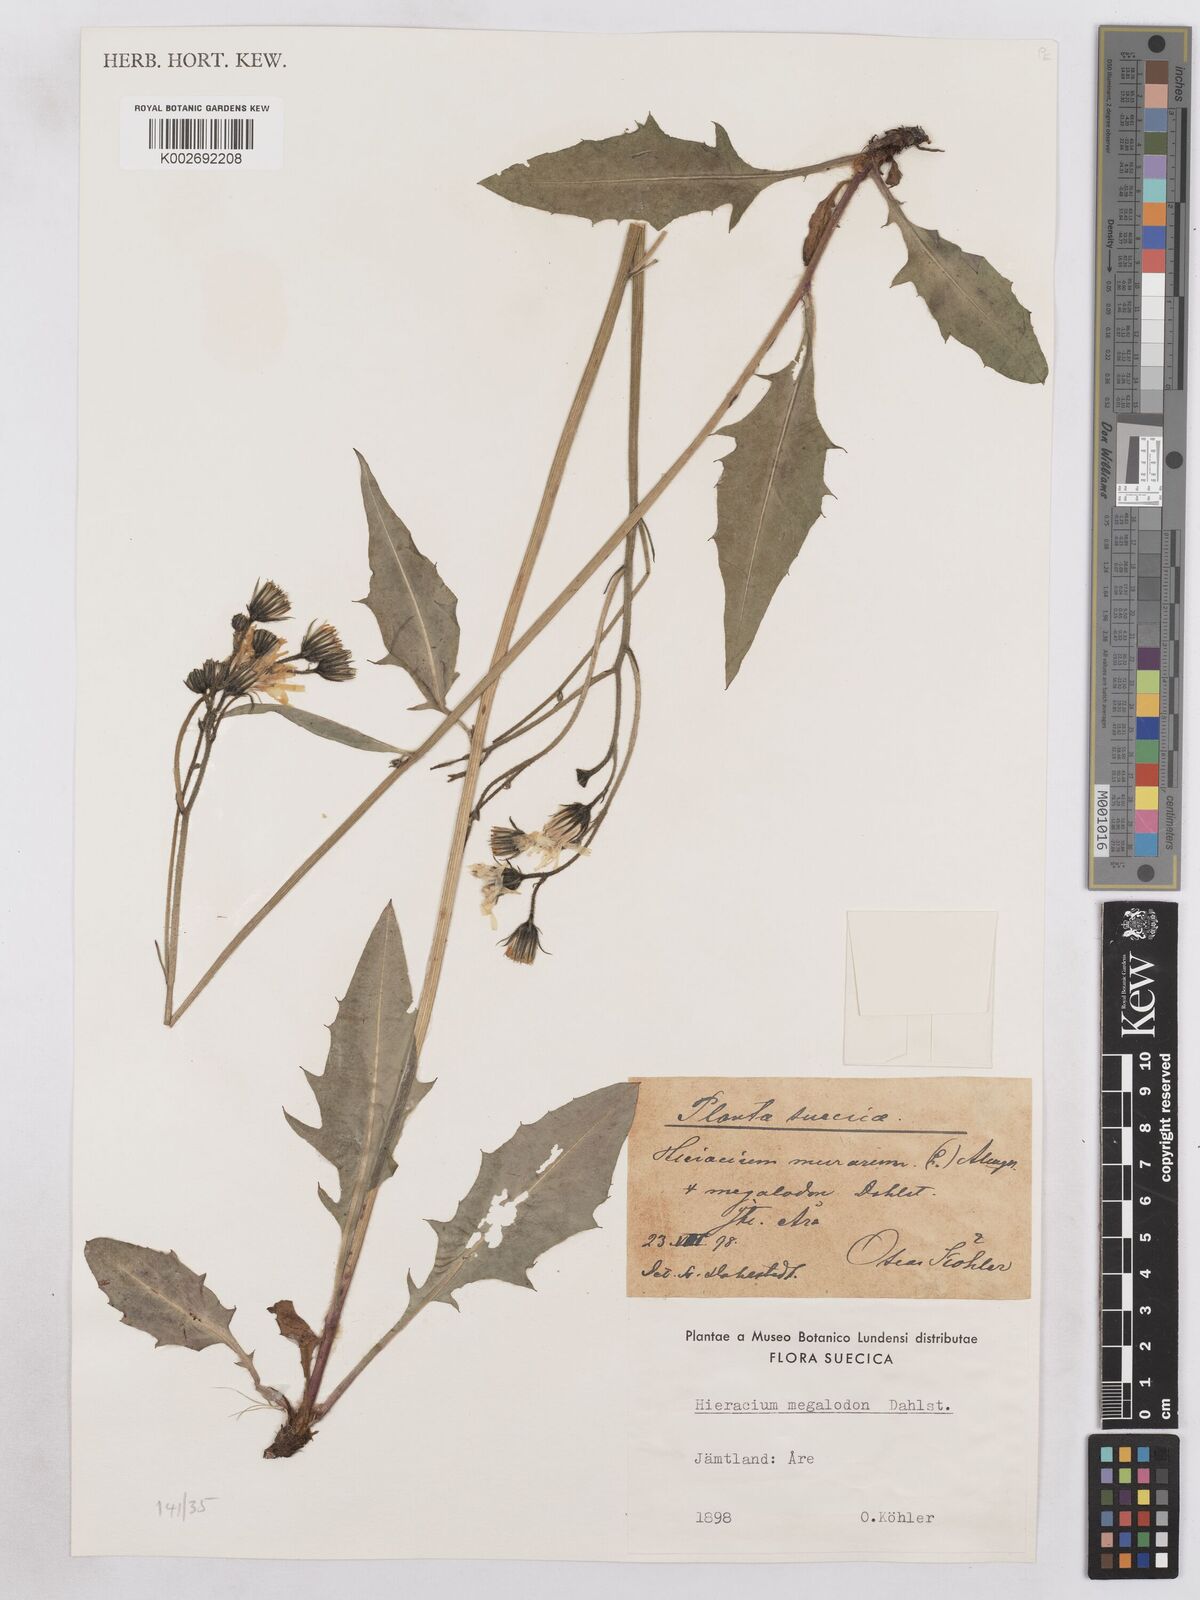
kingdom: Plantae
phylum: Tracheophyta
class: Magnoliopsida
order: Asterales
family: Asteraceae
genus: Hieracium
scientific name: Hieracium diaphanoides
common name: Fine-bracted hawkweed
